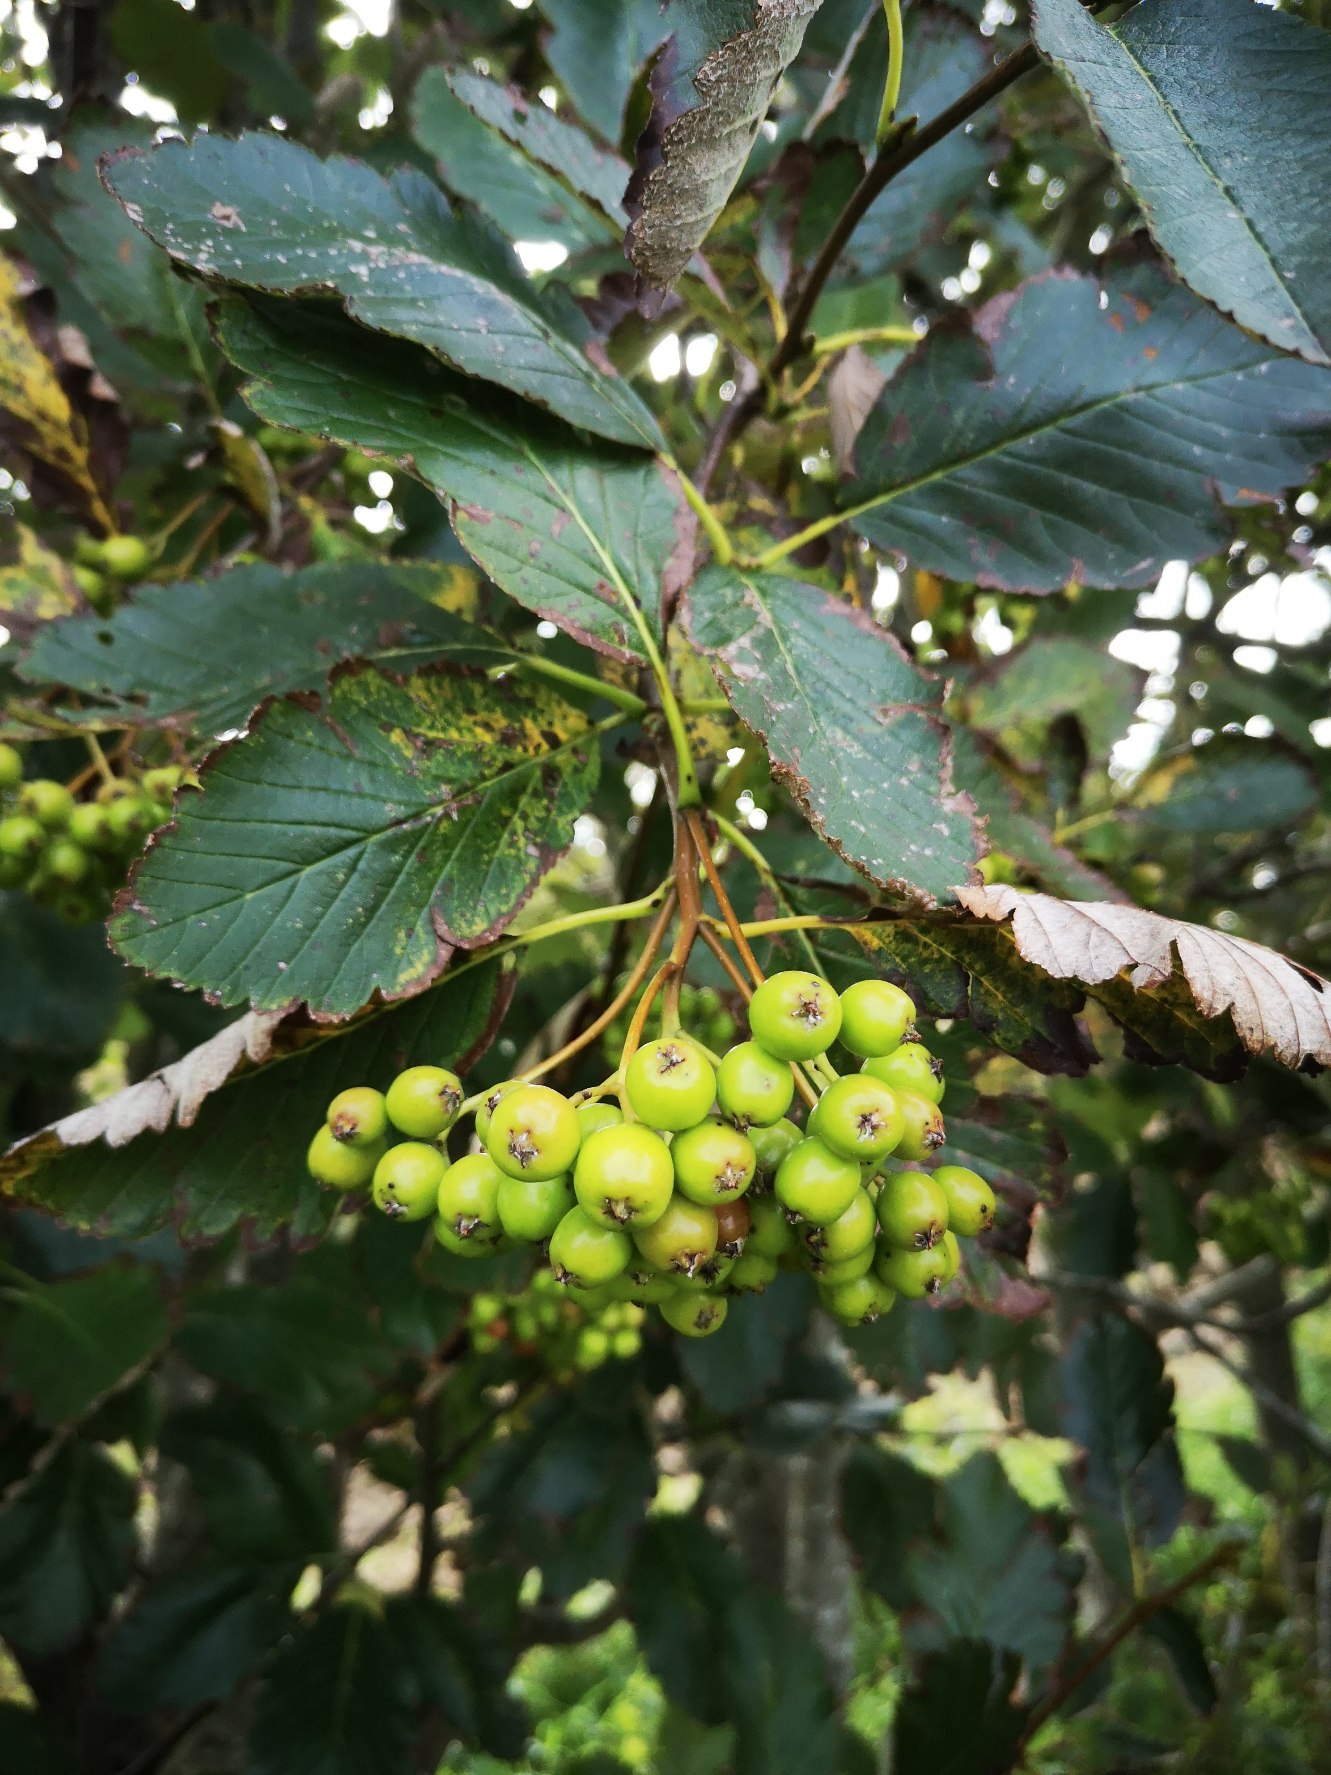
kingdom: Plantae
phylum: Tracheophyta
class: Magnoliopsida
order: Rosales
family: Rosaceae
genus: Hedlundia
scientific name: Hedlundia austriaca
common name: Østrigsk røn
